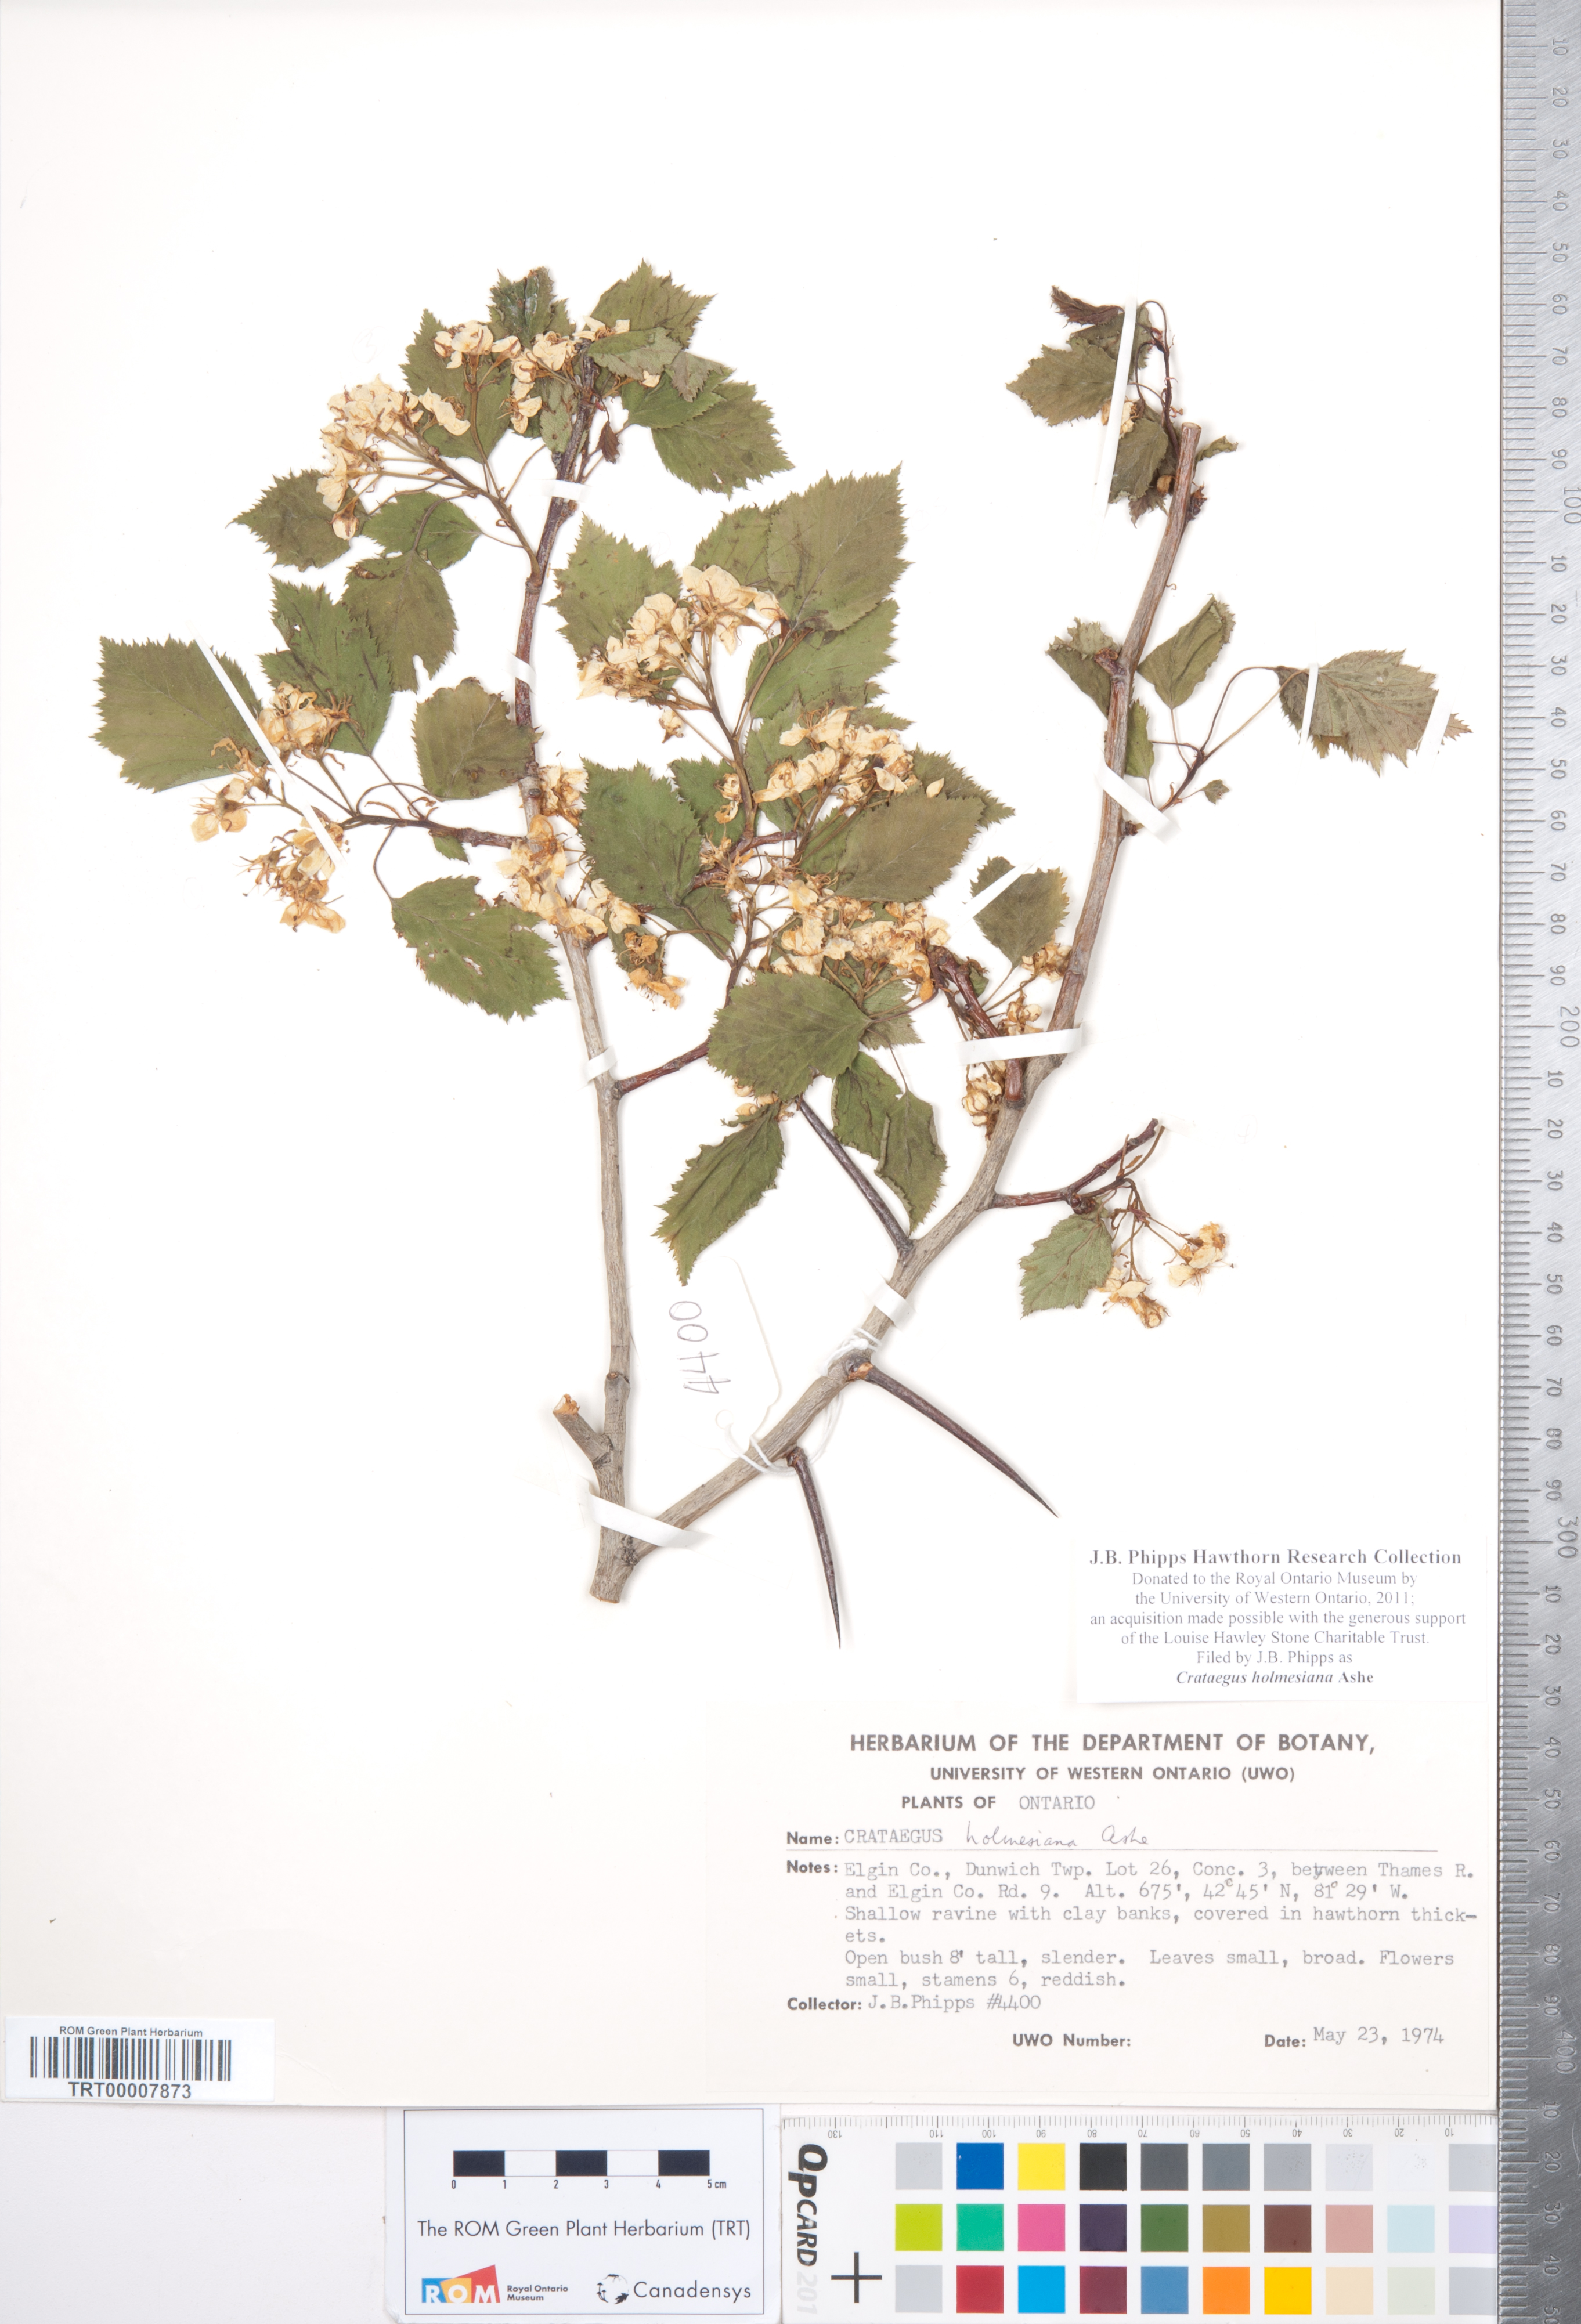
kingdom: Plantae
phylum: Tracheophyta
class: Magnoliopsida
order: Rosales
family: Rosaceae
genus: Crataegus
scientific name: Crataegus holmesiana
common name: Holmes' hawthorn
